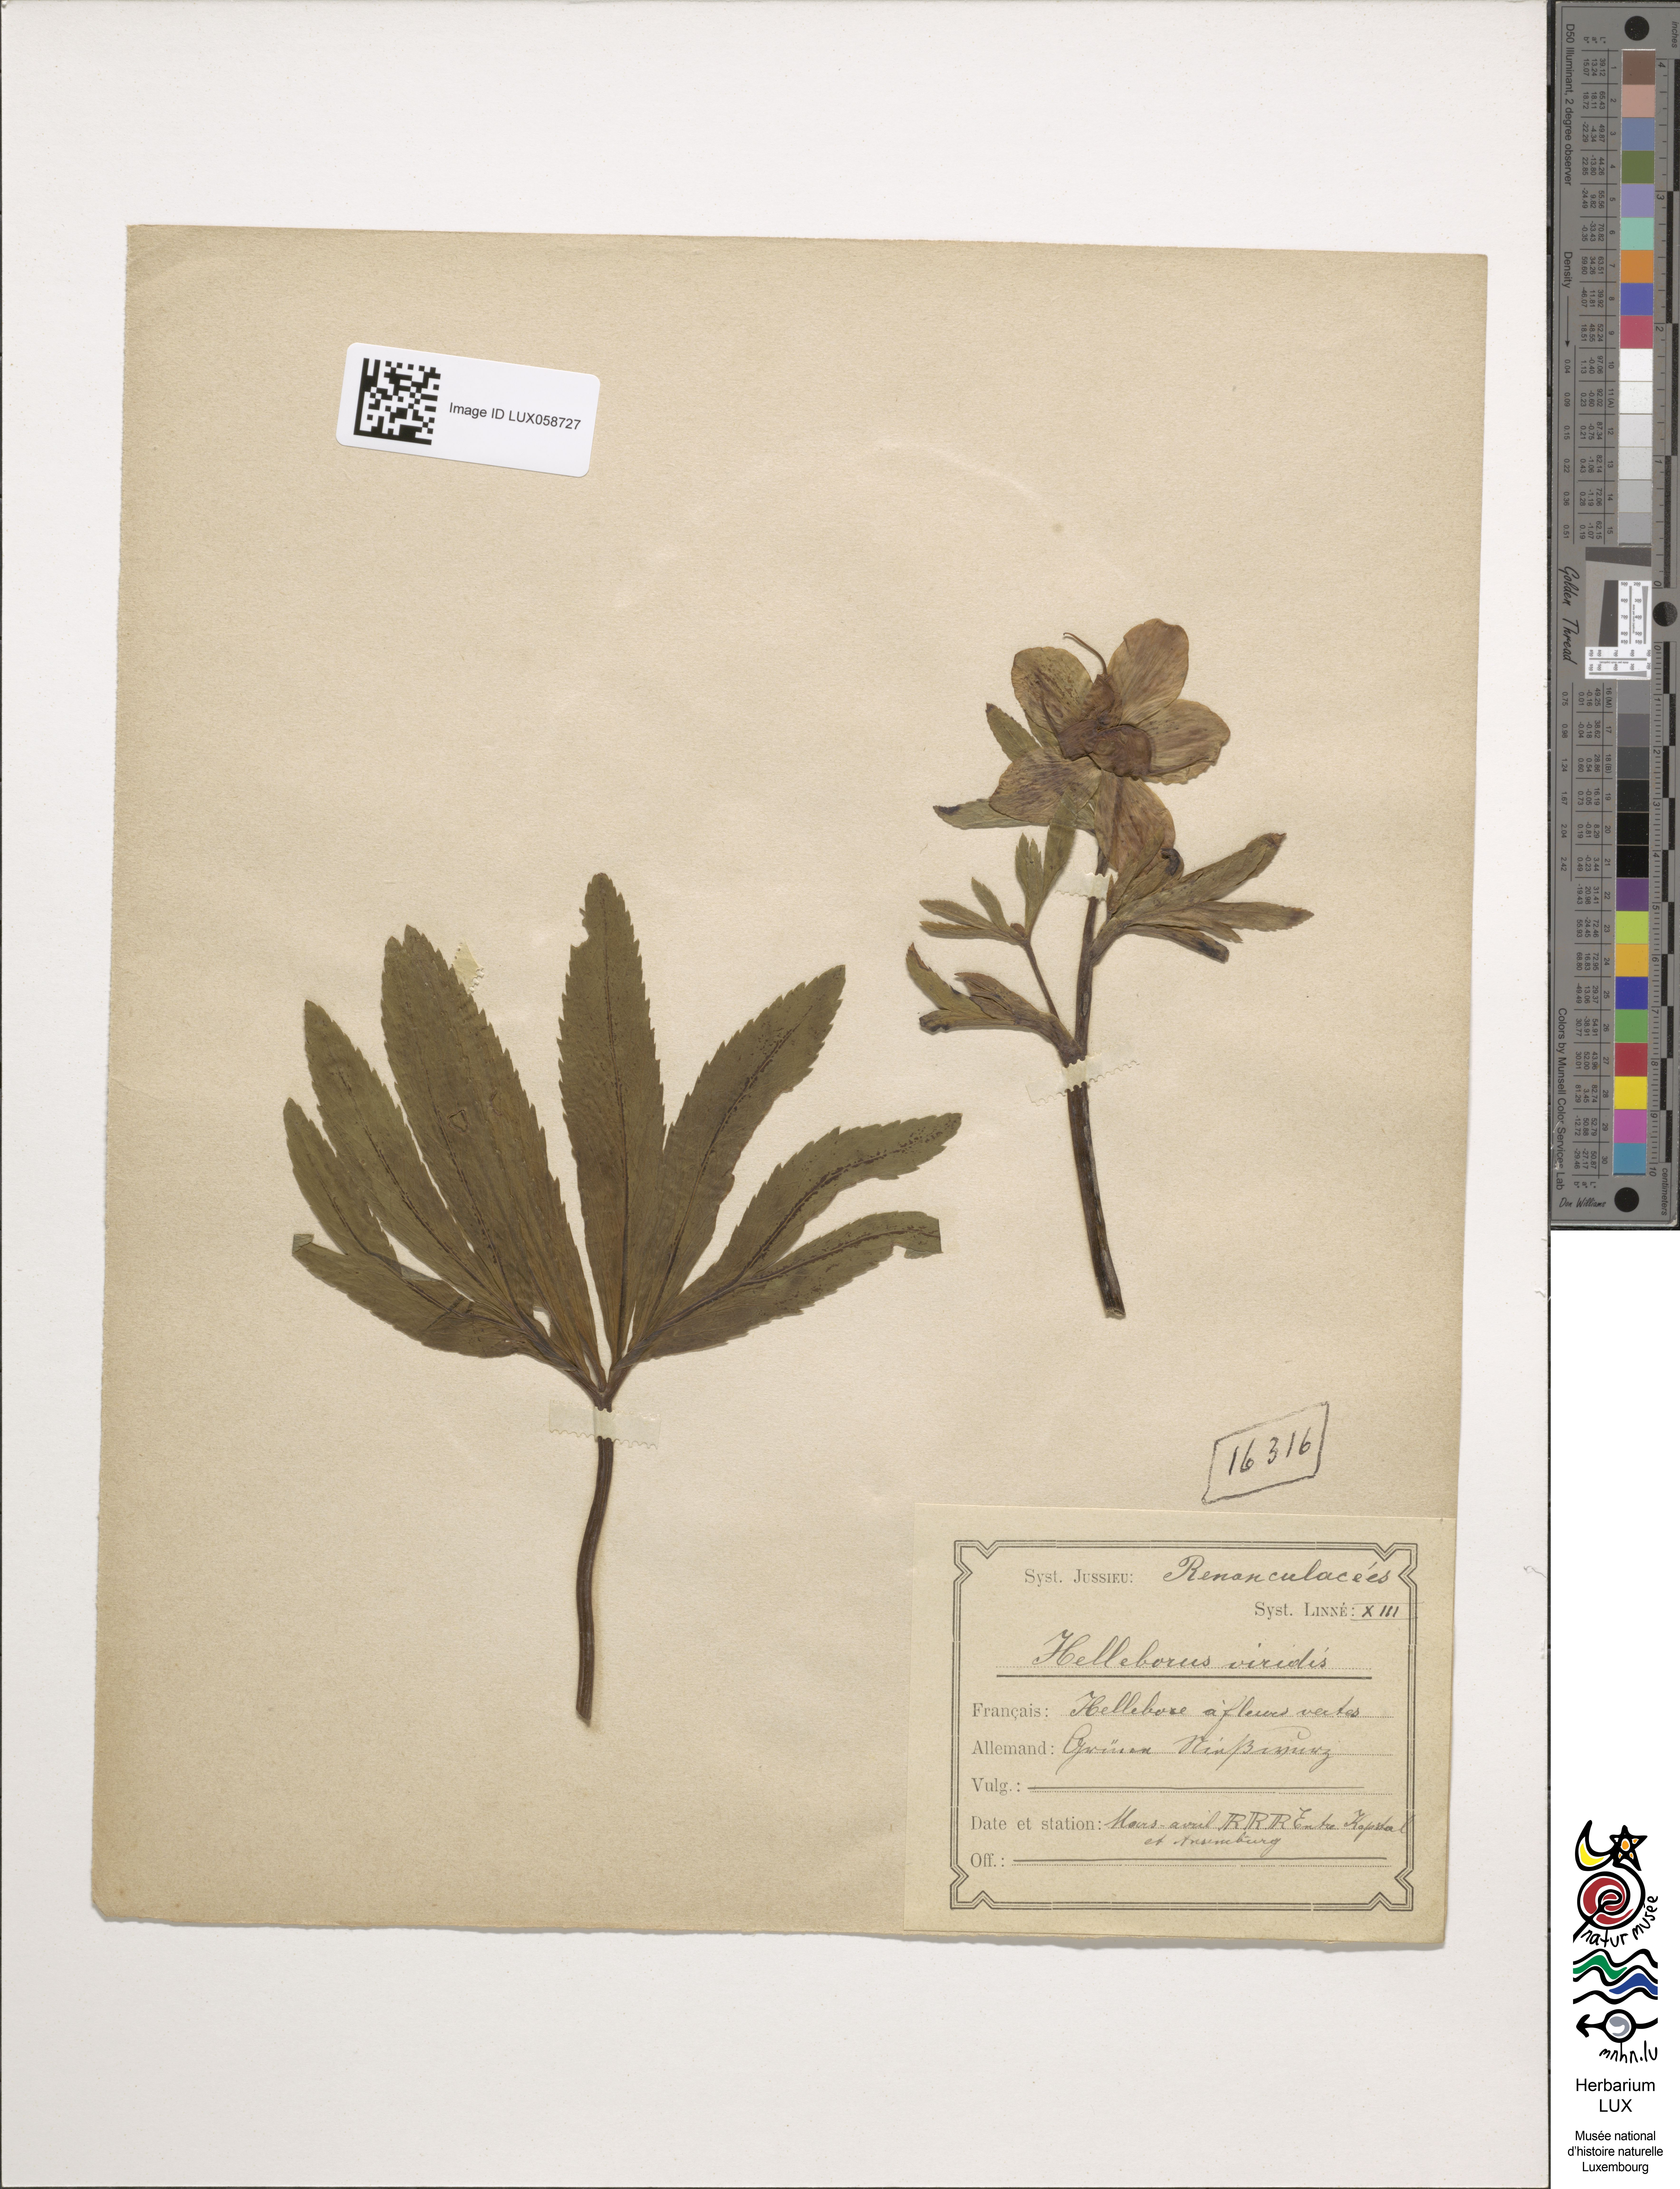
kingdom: Plantae
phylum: Tracheophyta
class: Magnoliopsida
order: Ranunculales
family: Ranunculaceae
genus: Helleborus
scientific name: Helleborus viridis
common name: Green hellebore
